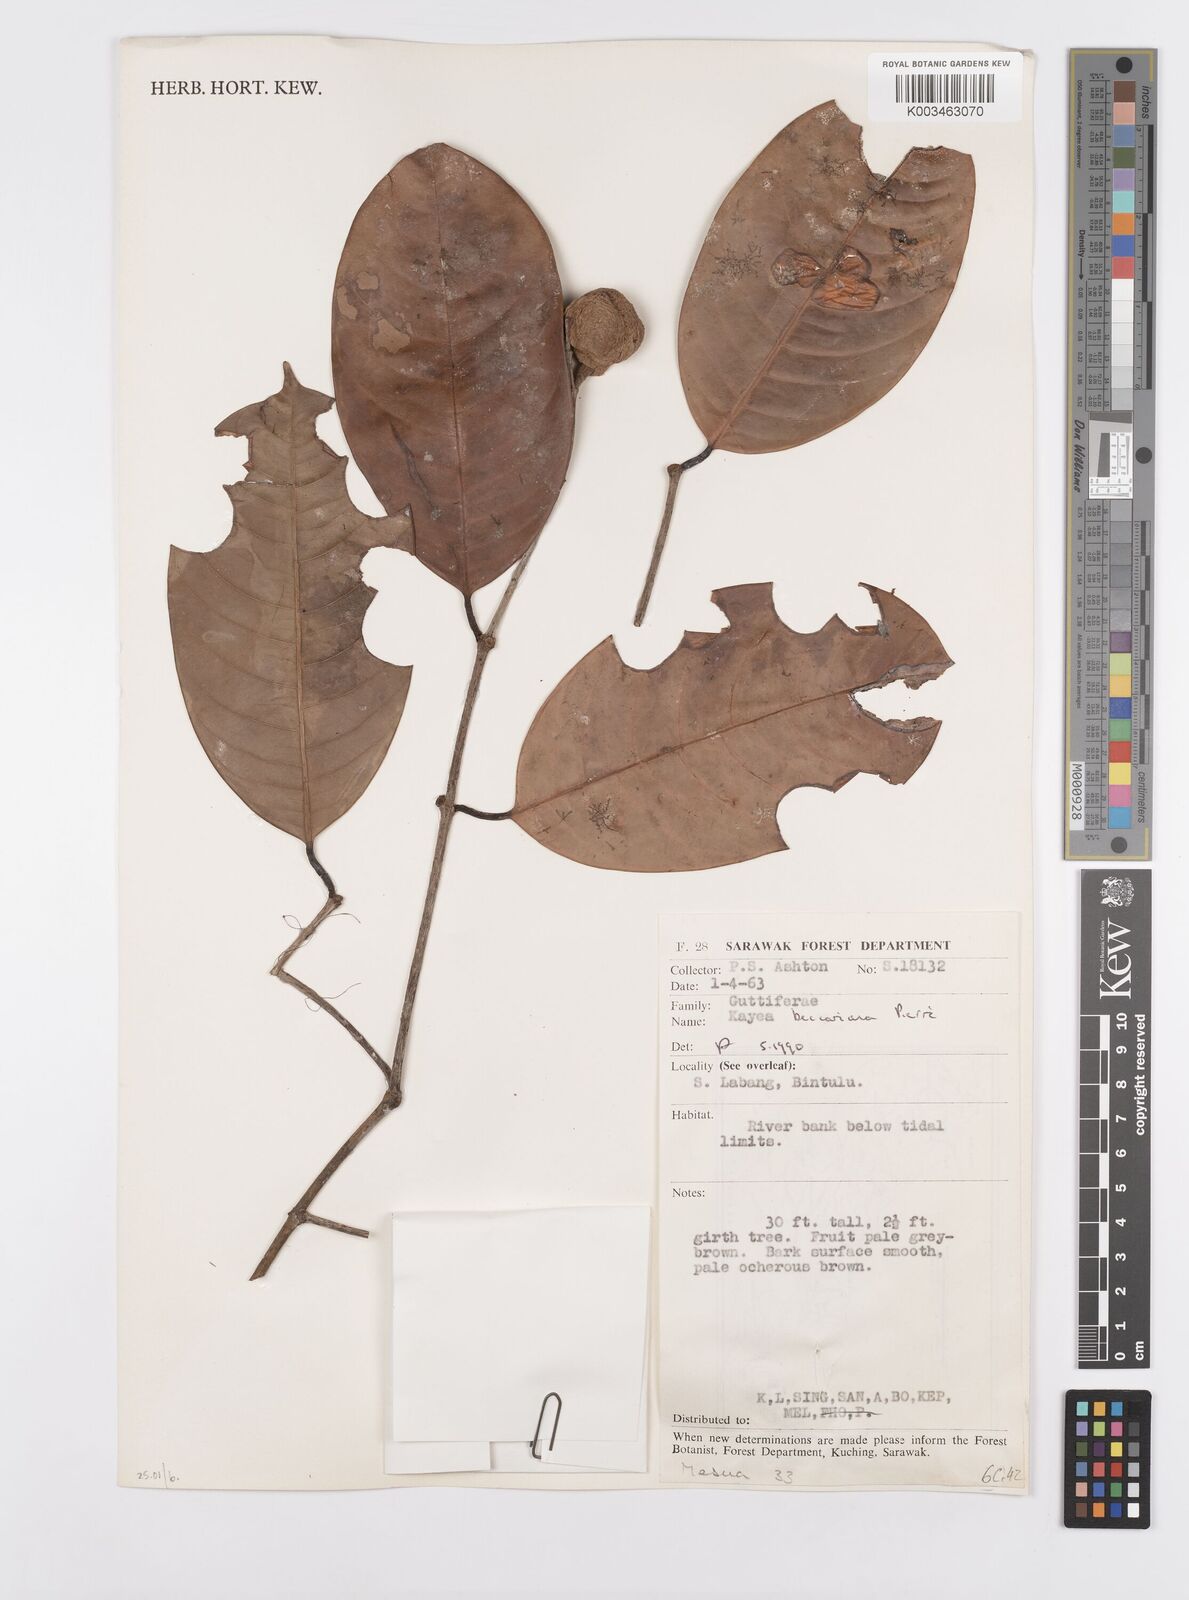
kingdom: Plantae
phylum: Tracheophyta
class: Magnoliopsida
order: Malpighiales
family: Calophyllaceae
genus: Kayea
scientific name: Kayea beccariana
